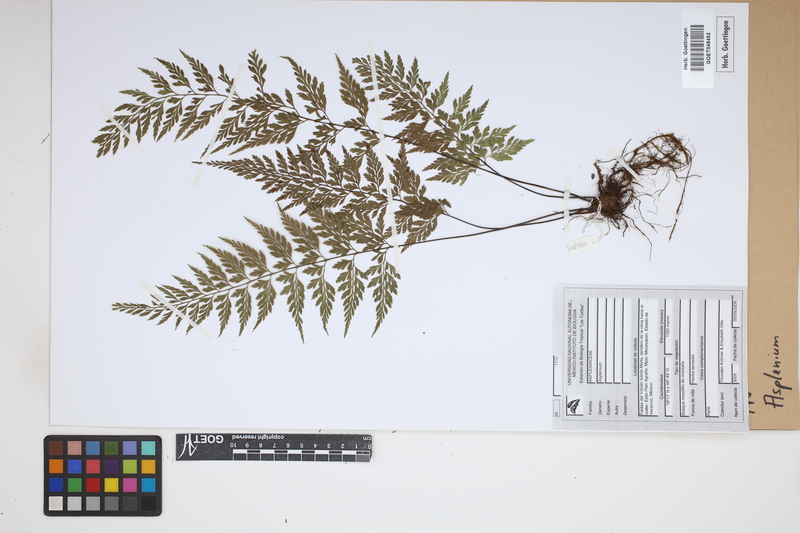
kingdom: Plantae
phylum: Tracheophyta
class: Polypodiopsida
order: Polypodiales
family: Aspleniaceae
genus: Asplenium
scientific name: Asplenium
